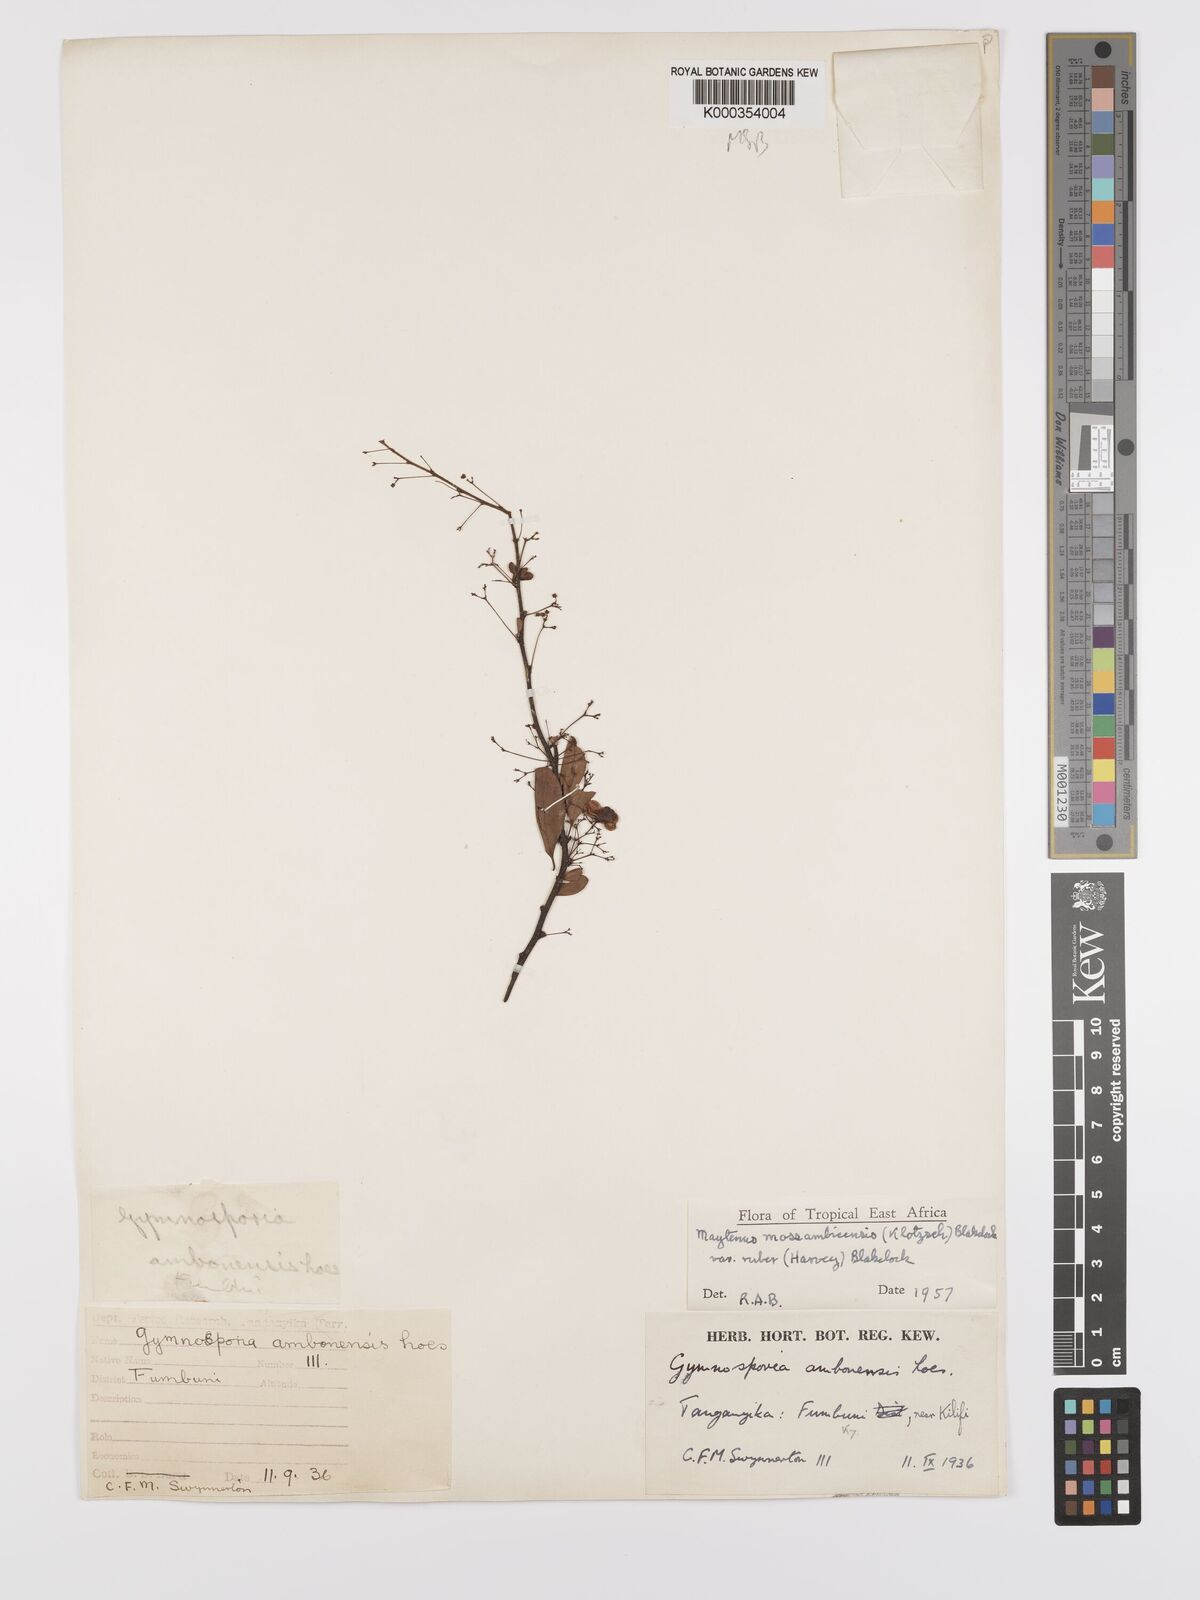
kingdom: Plantae
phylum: Tracheophyta
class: Magnoliopsida
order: Celastrales
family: Celastraceae
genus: Gymnosporia
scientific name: Gymnosporia mossambicensis
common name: Black forest spike-thorn
